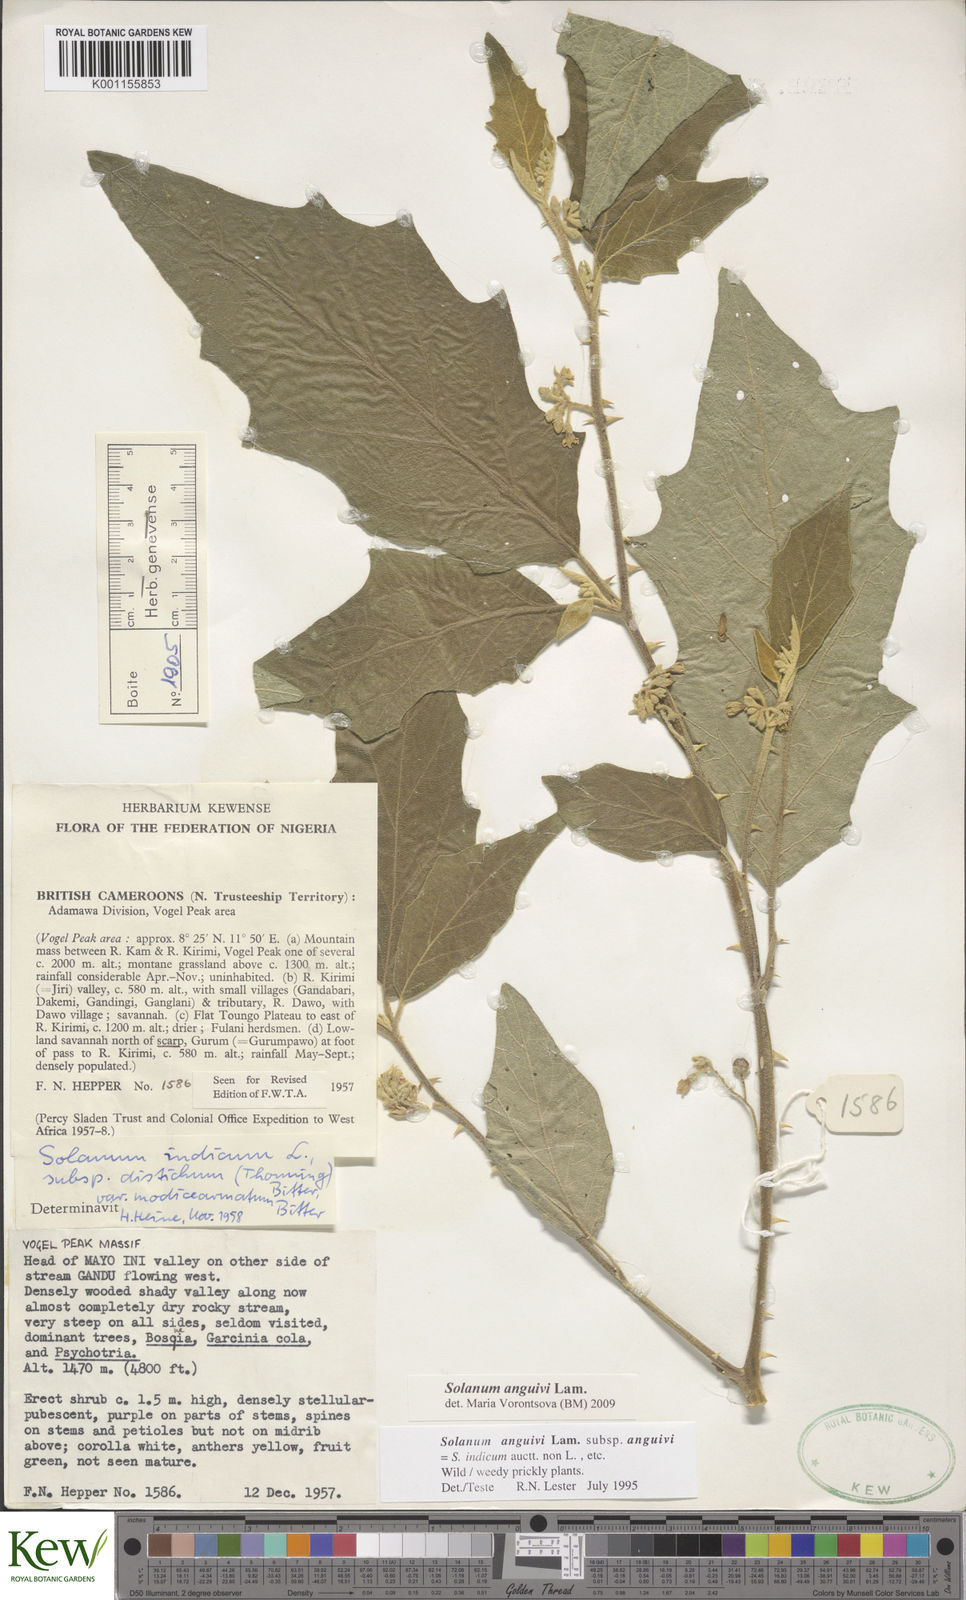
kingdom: Plantae
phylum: Tracheophyta
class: Magnoliopsida
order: Solanales
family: Solanaceae
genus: Solanum
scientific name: Solanum anguivi
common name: Forest bitterberry
